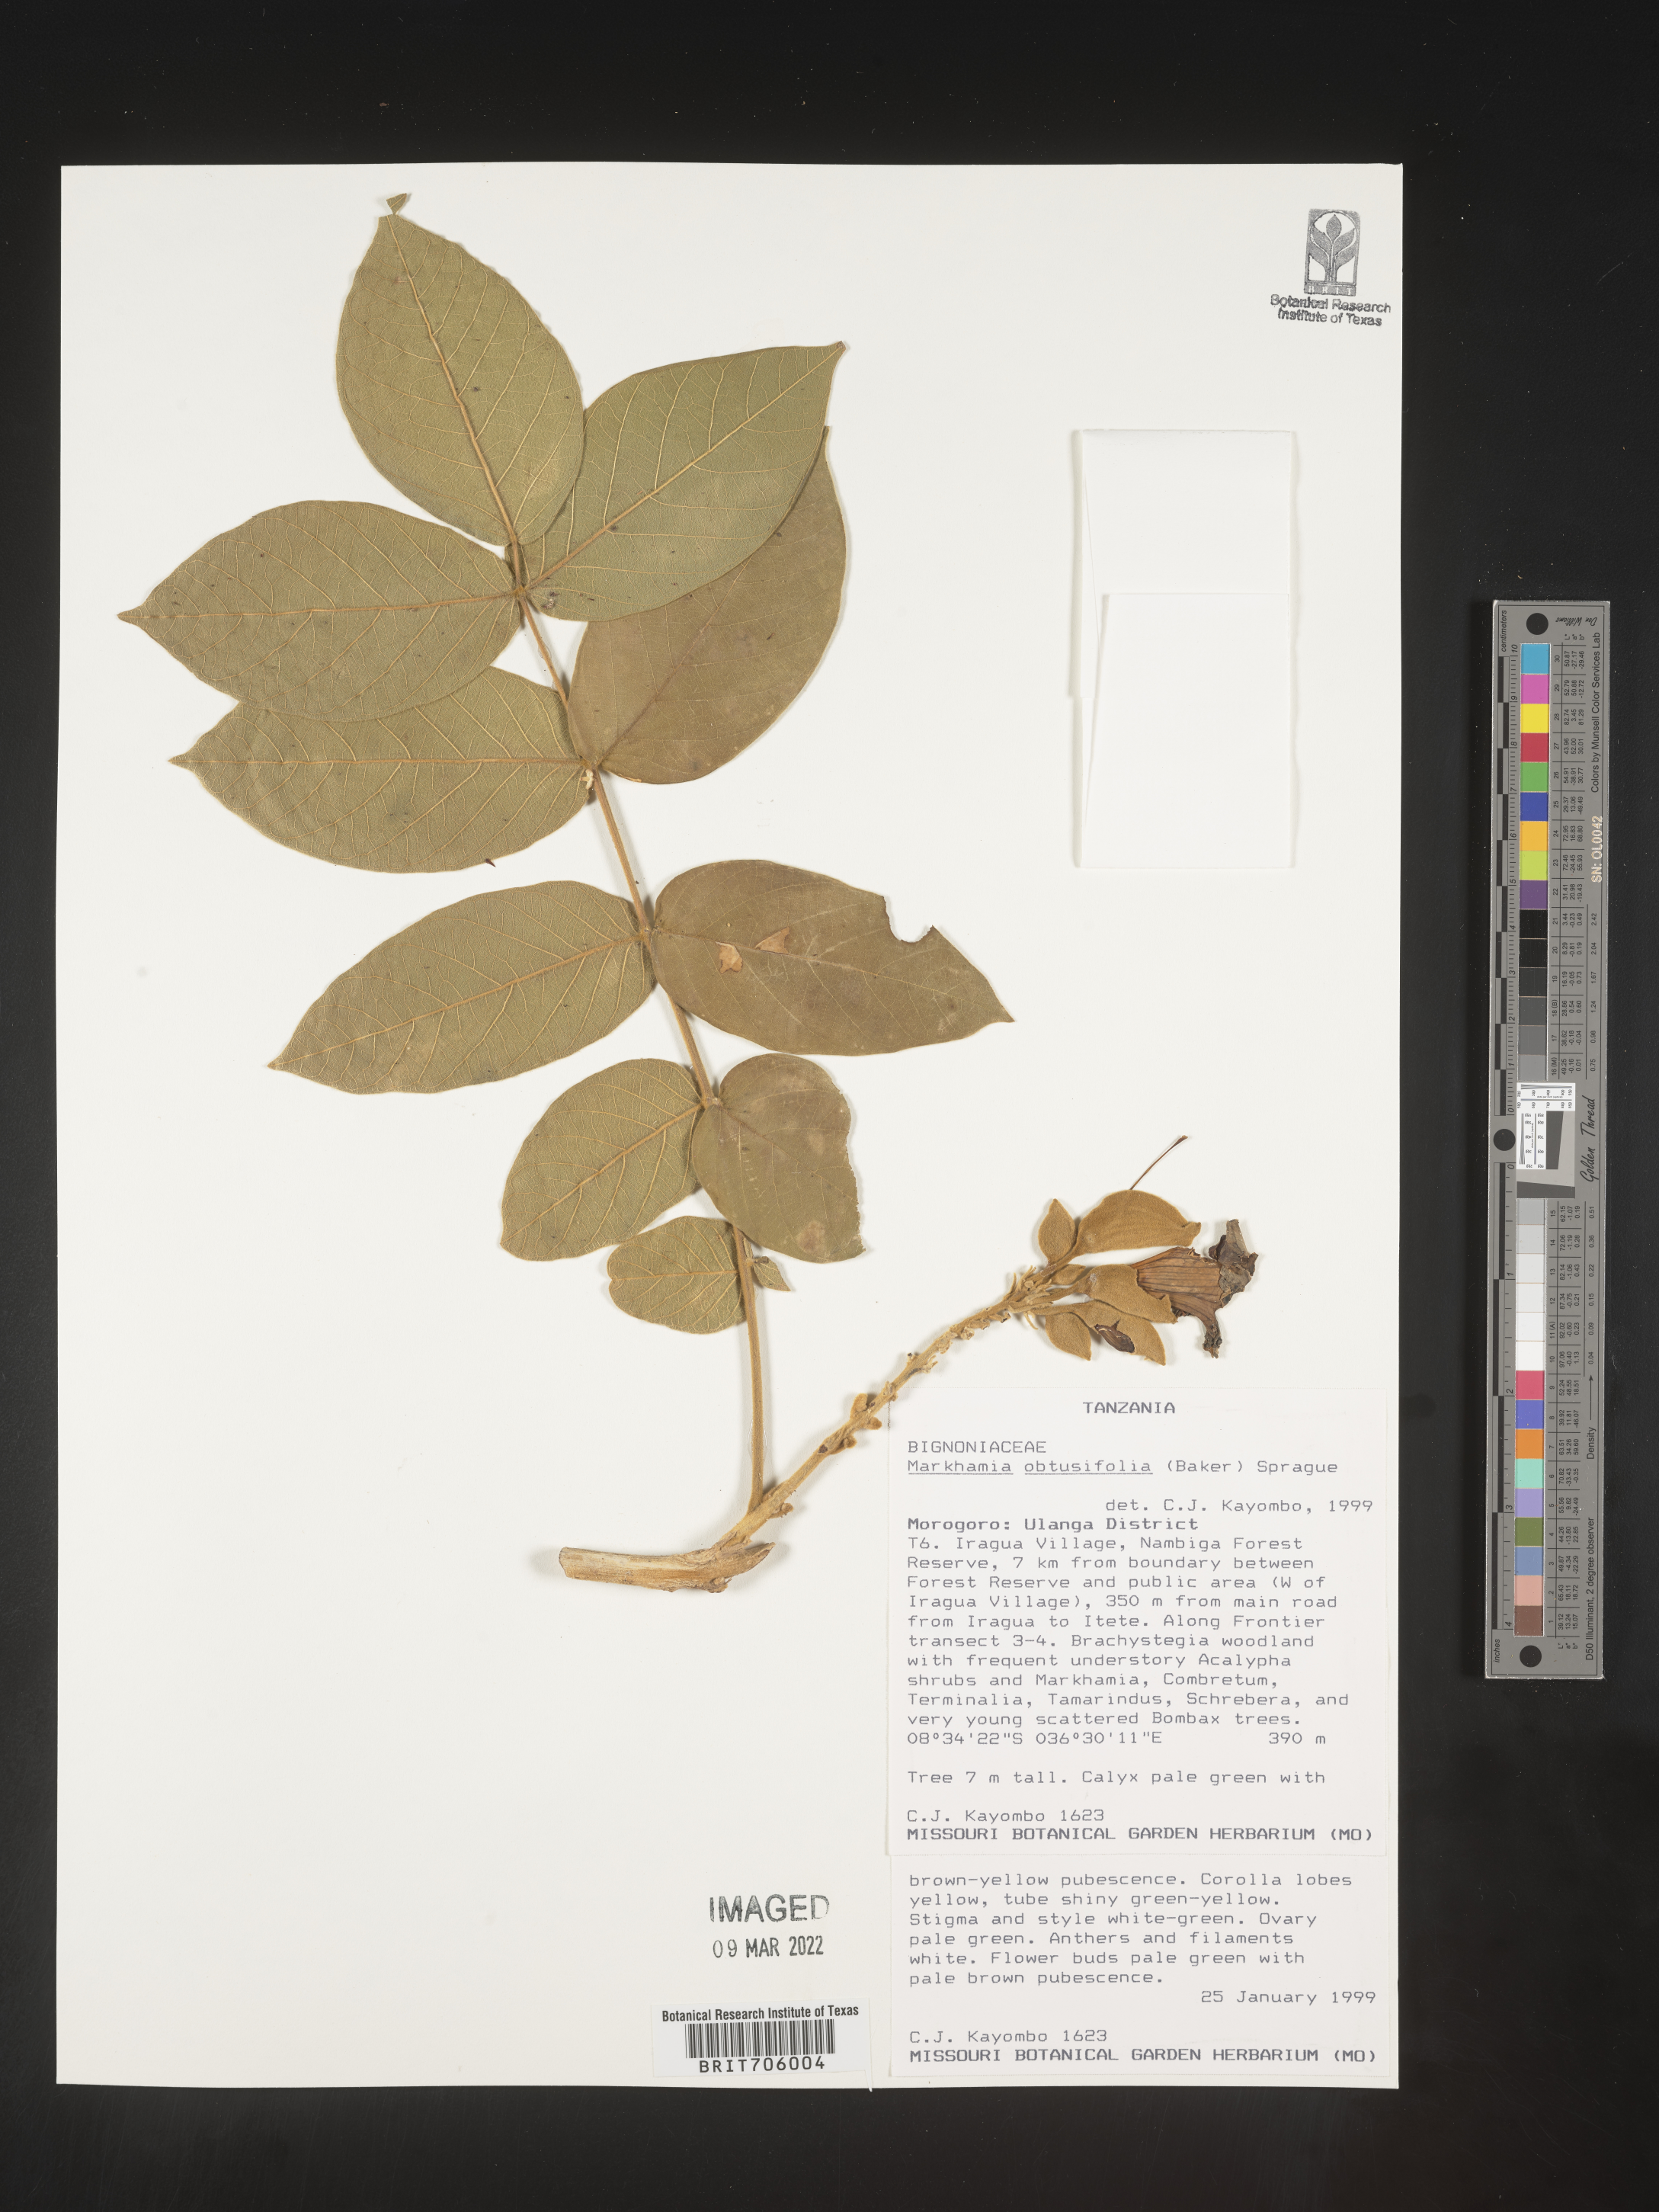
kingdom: Plantae
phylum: Tracheophyta
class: Magnoliopsida
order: Lamiales
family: Bignoniaceae
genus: Markhamia
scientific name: Markhamia
